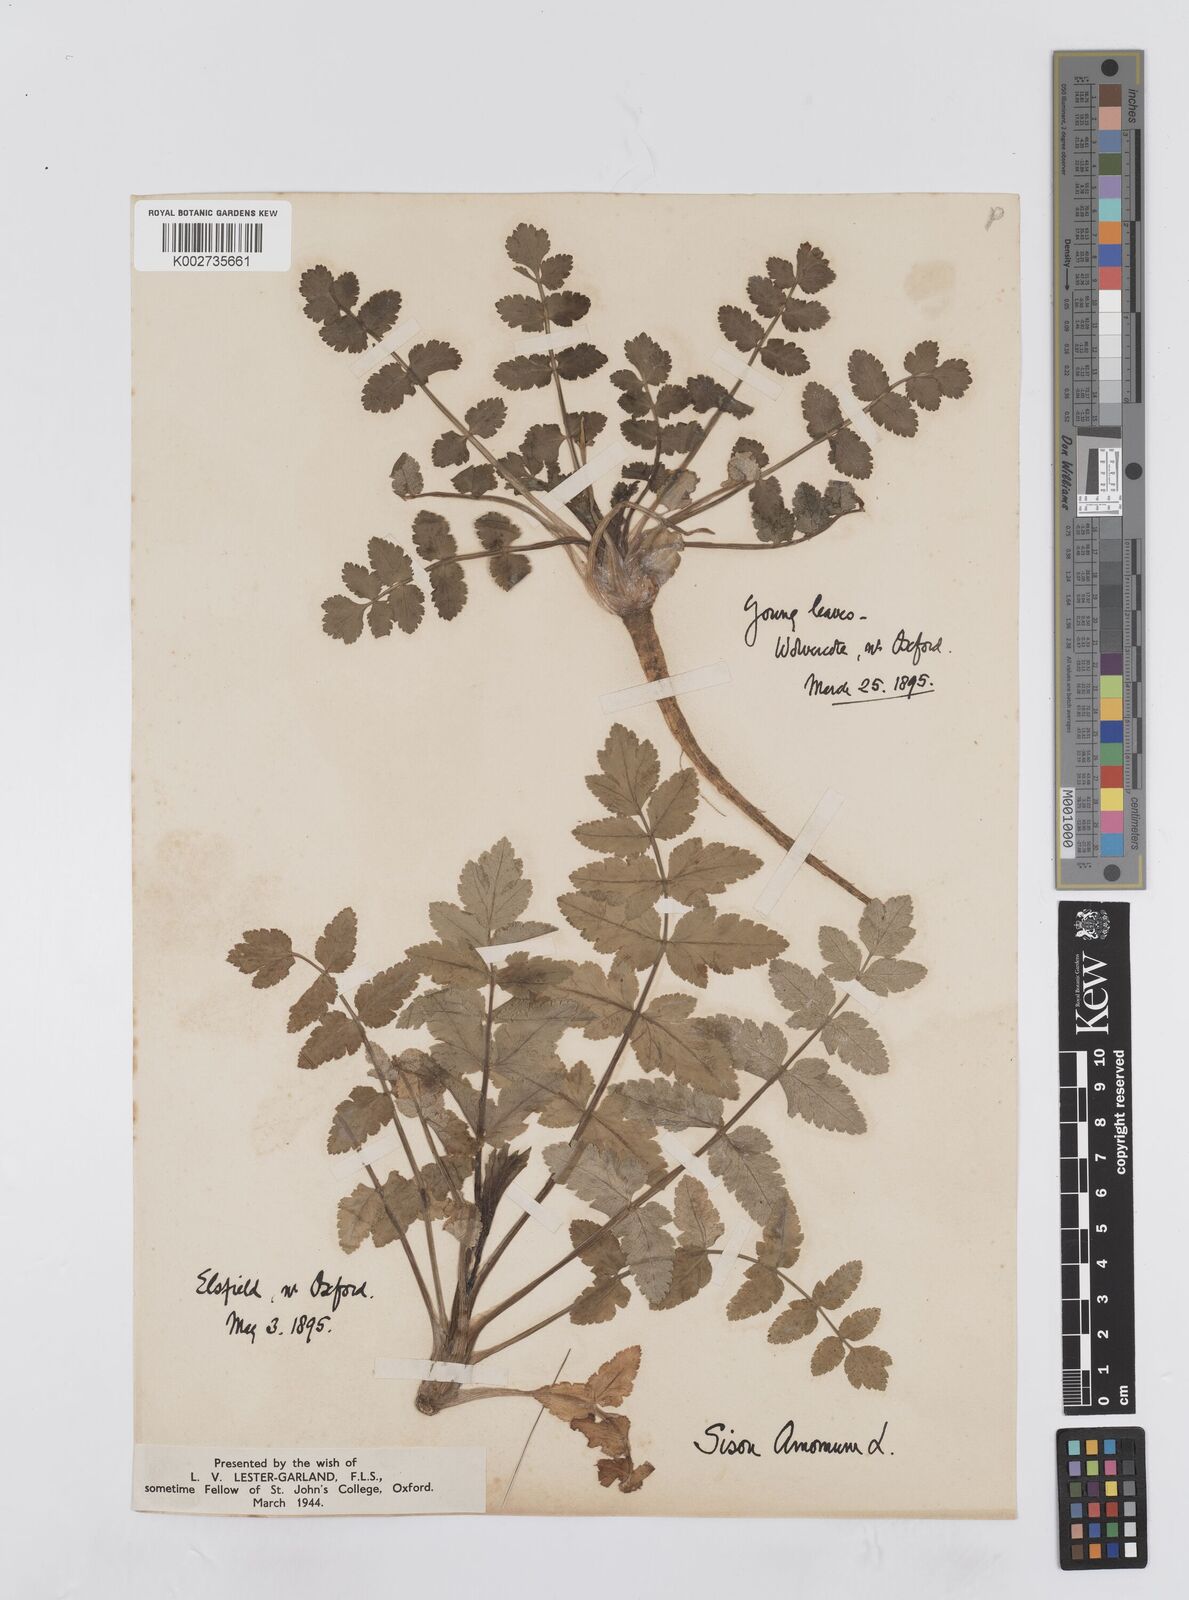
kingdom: Plantae
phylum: Tracheophyta
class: Magnoliopsida
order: Apiales
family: Apiaceae
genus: Sison
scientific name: Sison amomum
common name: Stone-parsley
